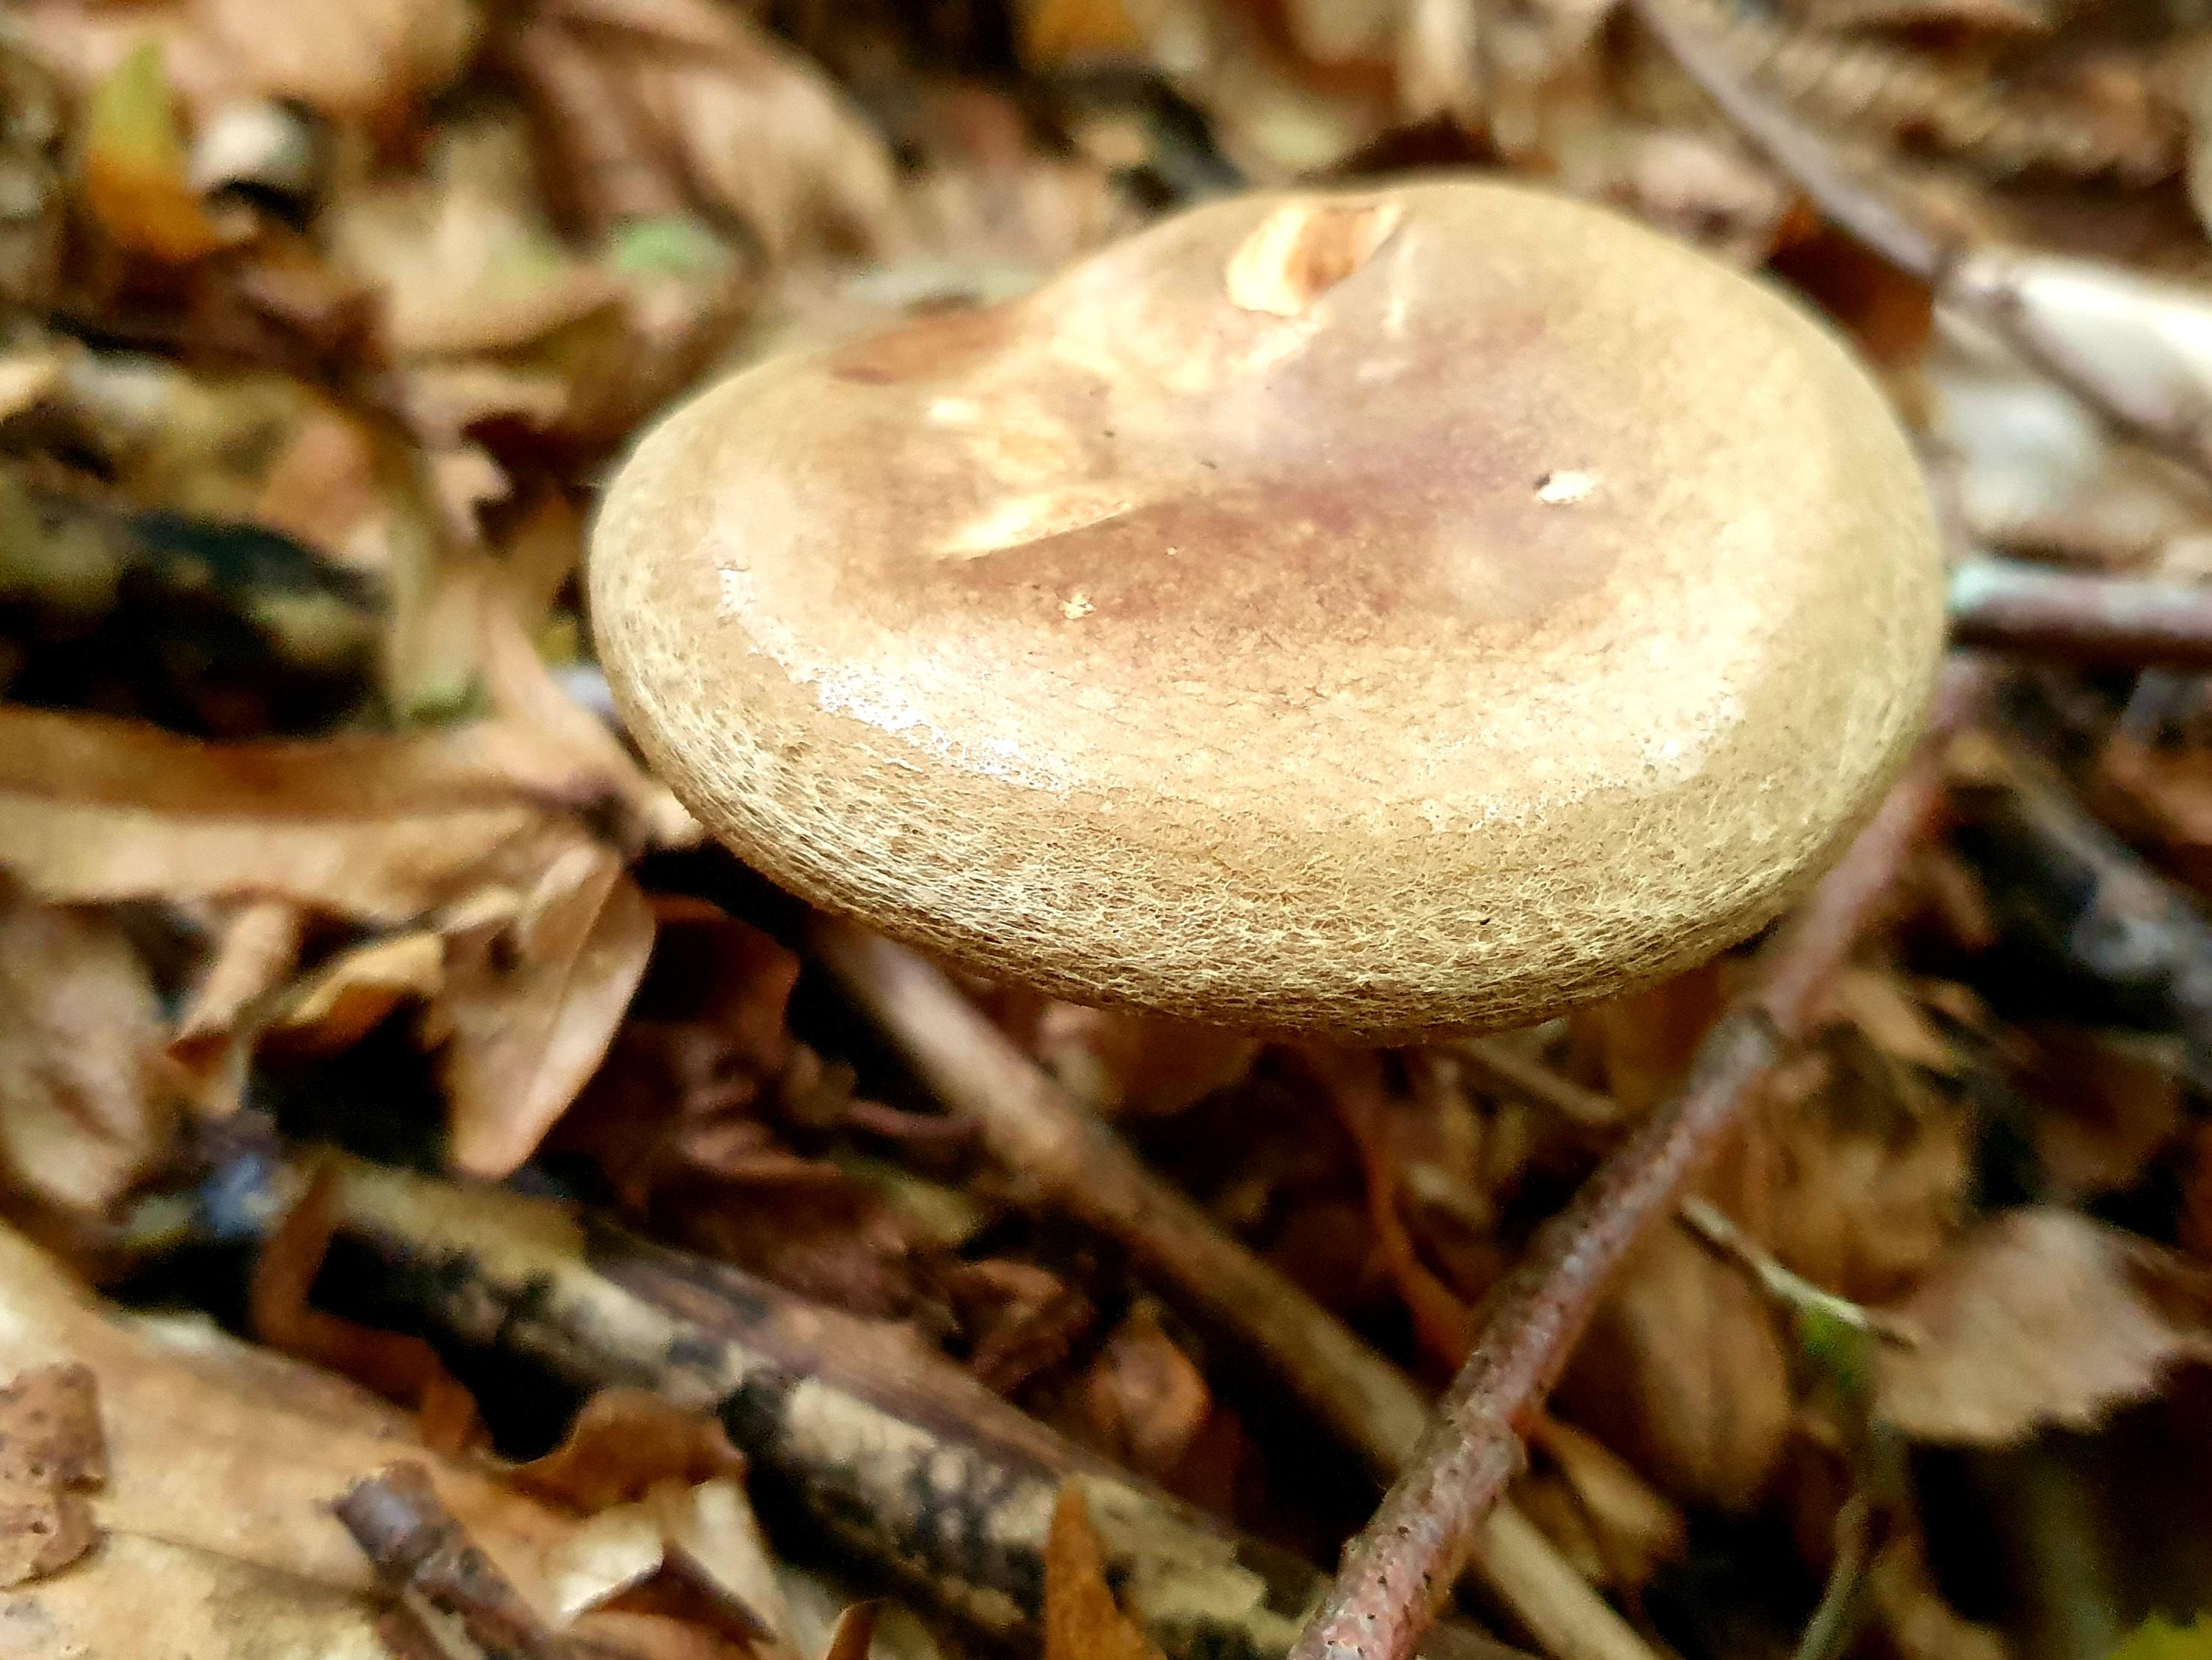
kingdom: Fungi
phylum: Basidiomycota
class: Agaricomycetes
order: Boletales
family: Paxillaceae
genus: Paxillus
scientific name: Paxillus involutus
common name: almindelig netbladhat
